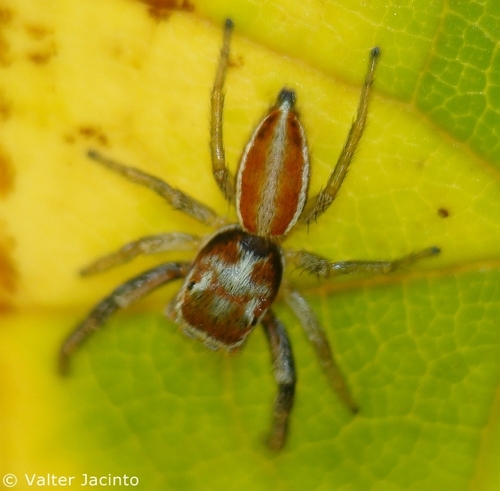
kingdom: Animalia
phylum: Arthropoda
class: Arachnida
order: Araneae
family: Salticidae
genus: Icius
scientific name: Icius hamatus
